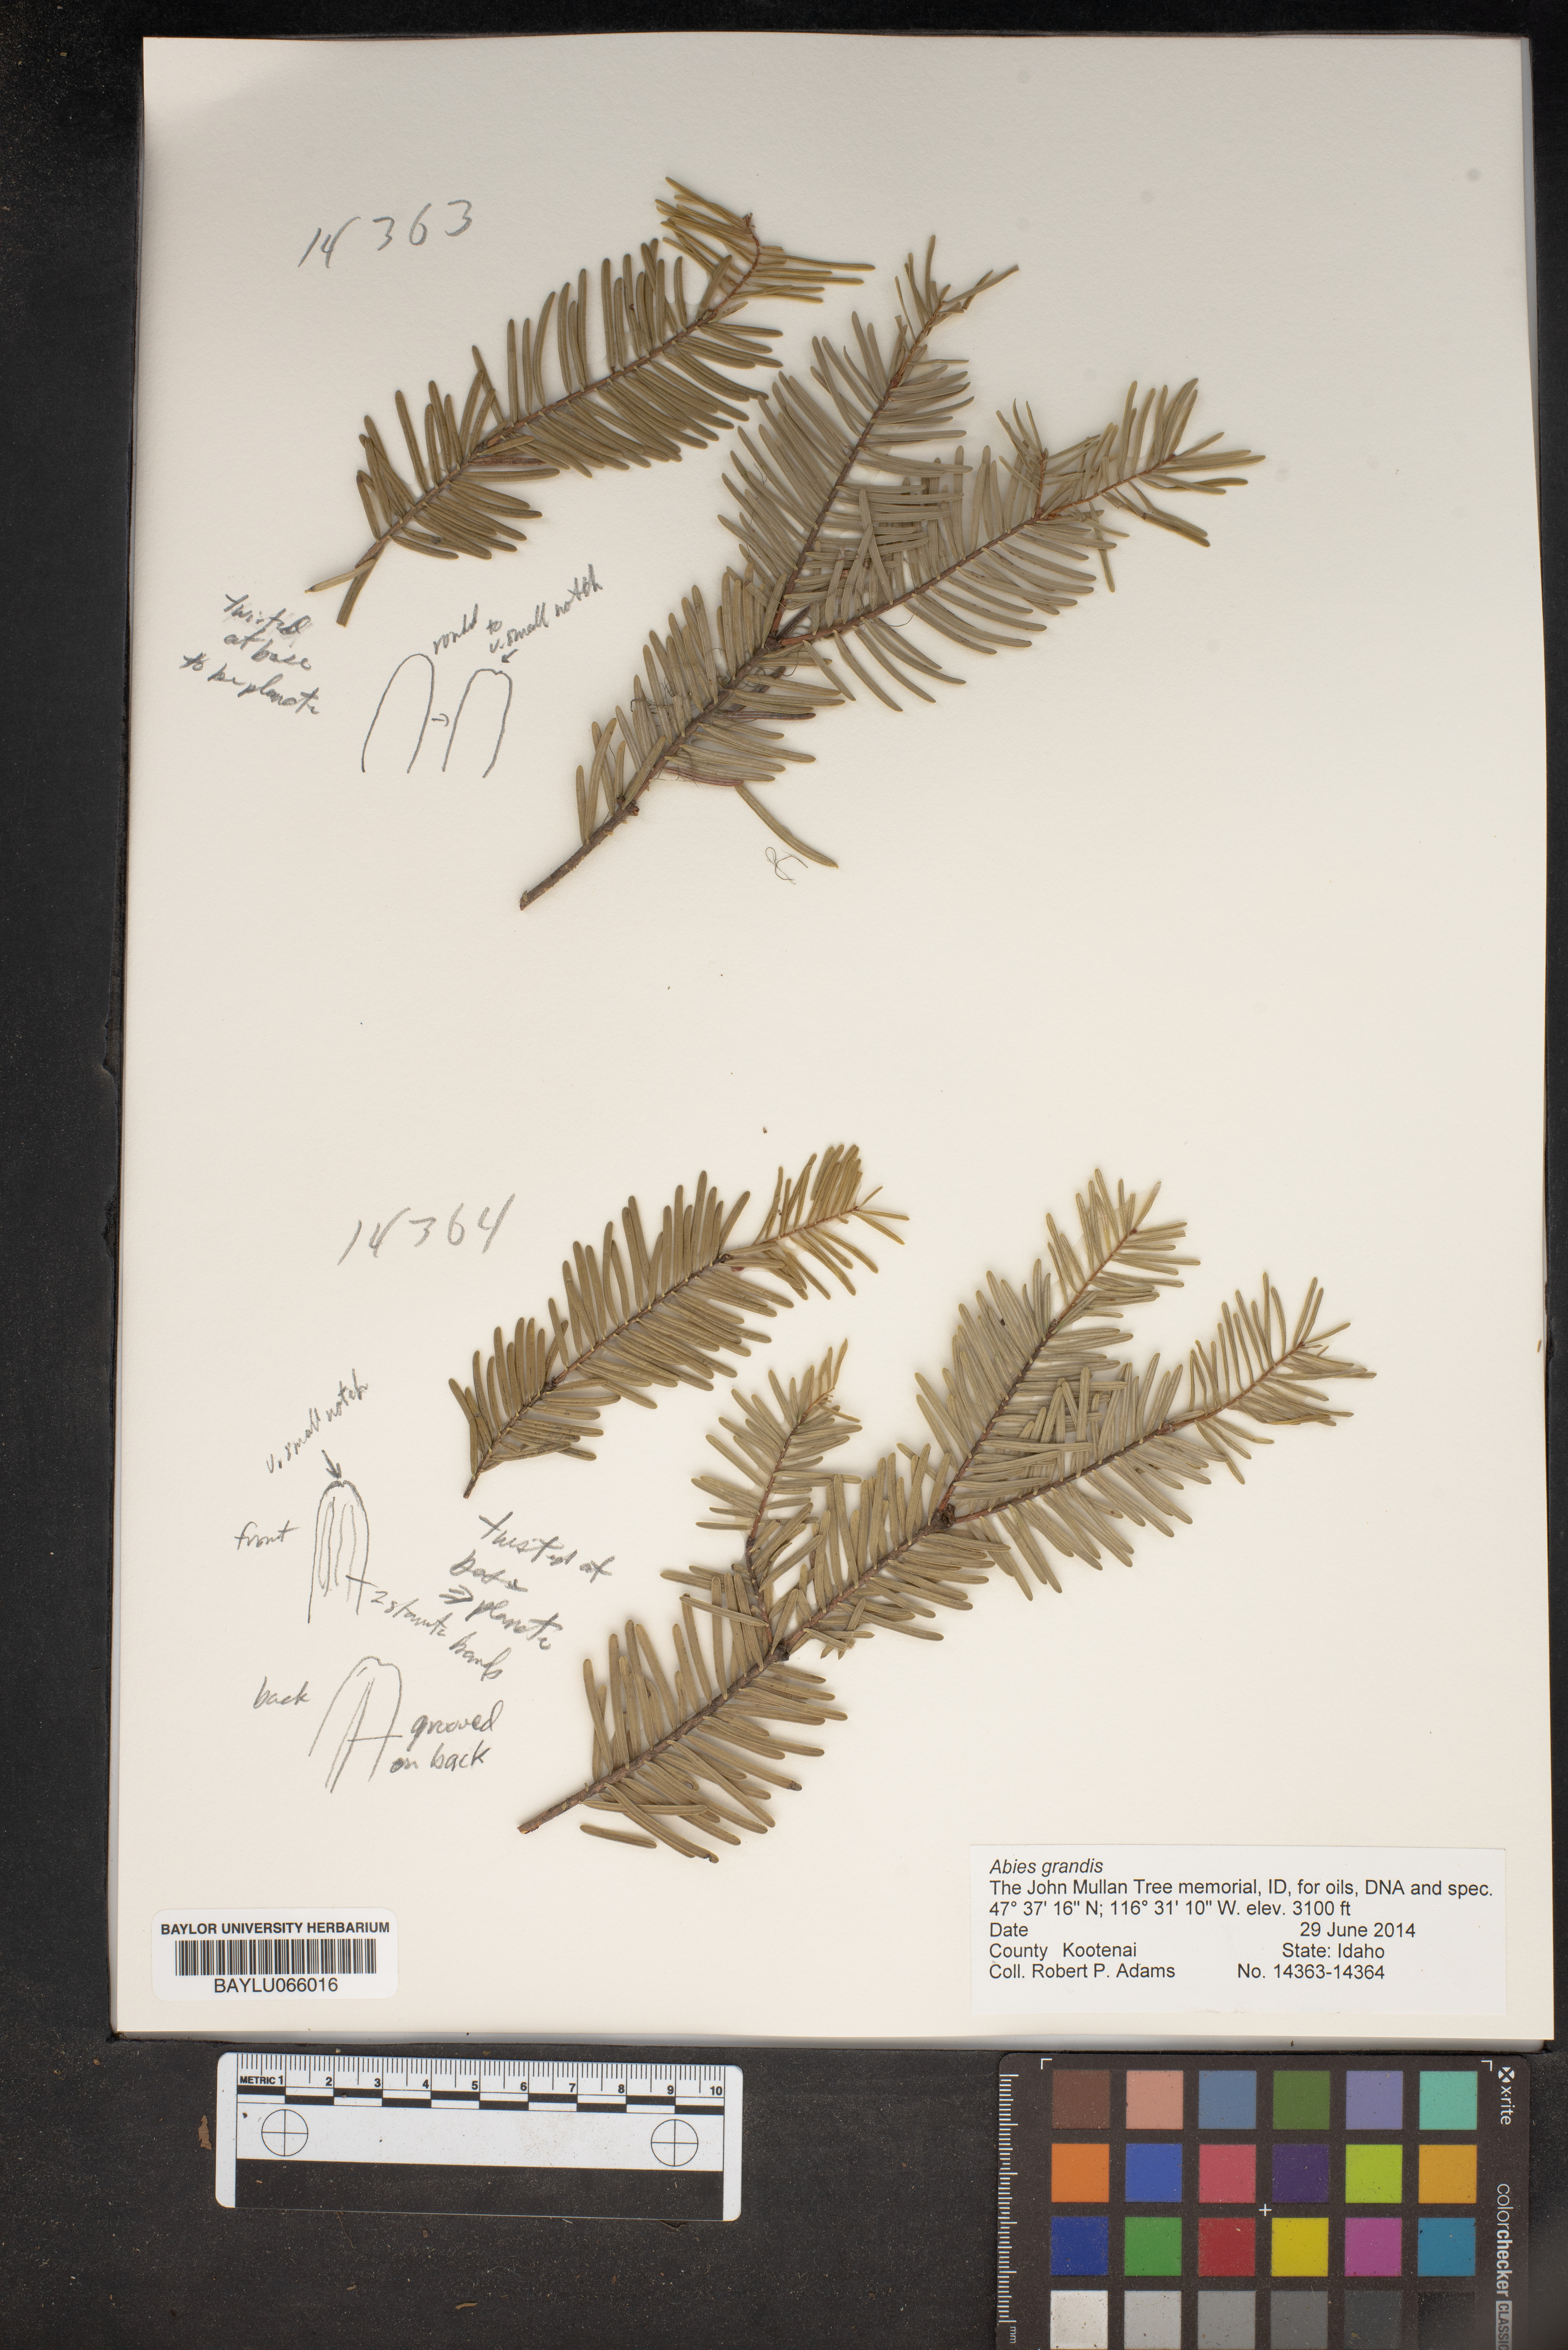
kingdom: Plantae
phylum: Tracheophyta
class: Pinopsida
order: Pinales
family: Pinaceae
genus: Abies
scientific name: Abies grandis
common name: Giant fir
